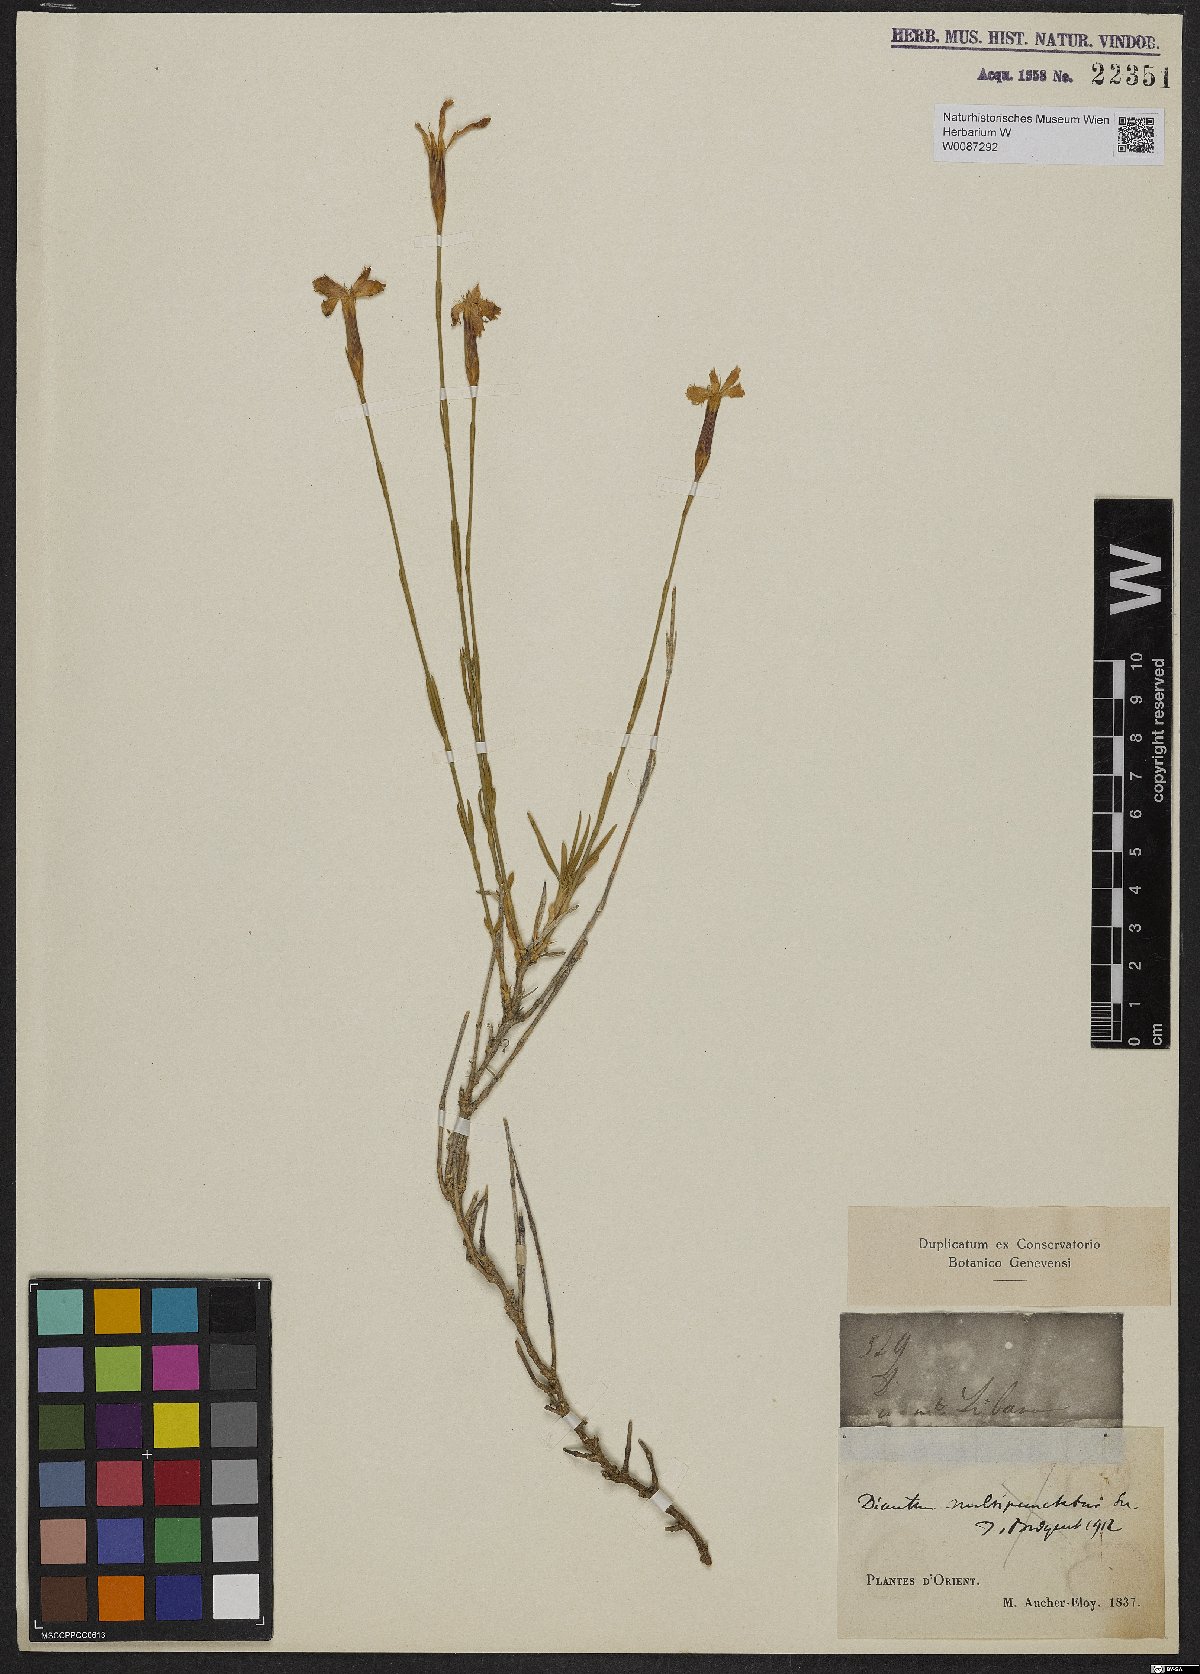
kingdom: Plantae
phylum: Tracheophyta
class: Magnoliopsida
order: Caryophyllales
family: Caryophyllaceae
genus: Dianthus
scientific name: Dianthus
